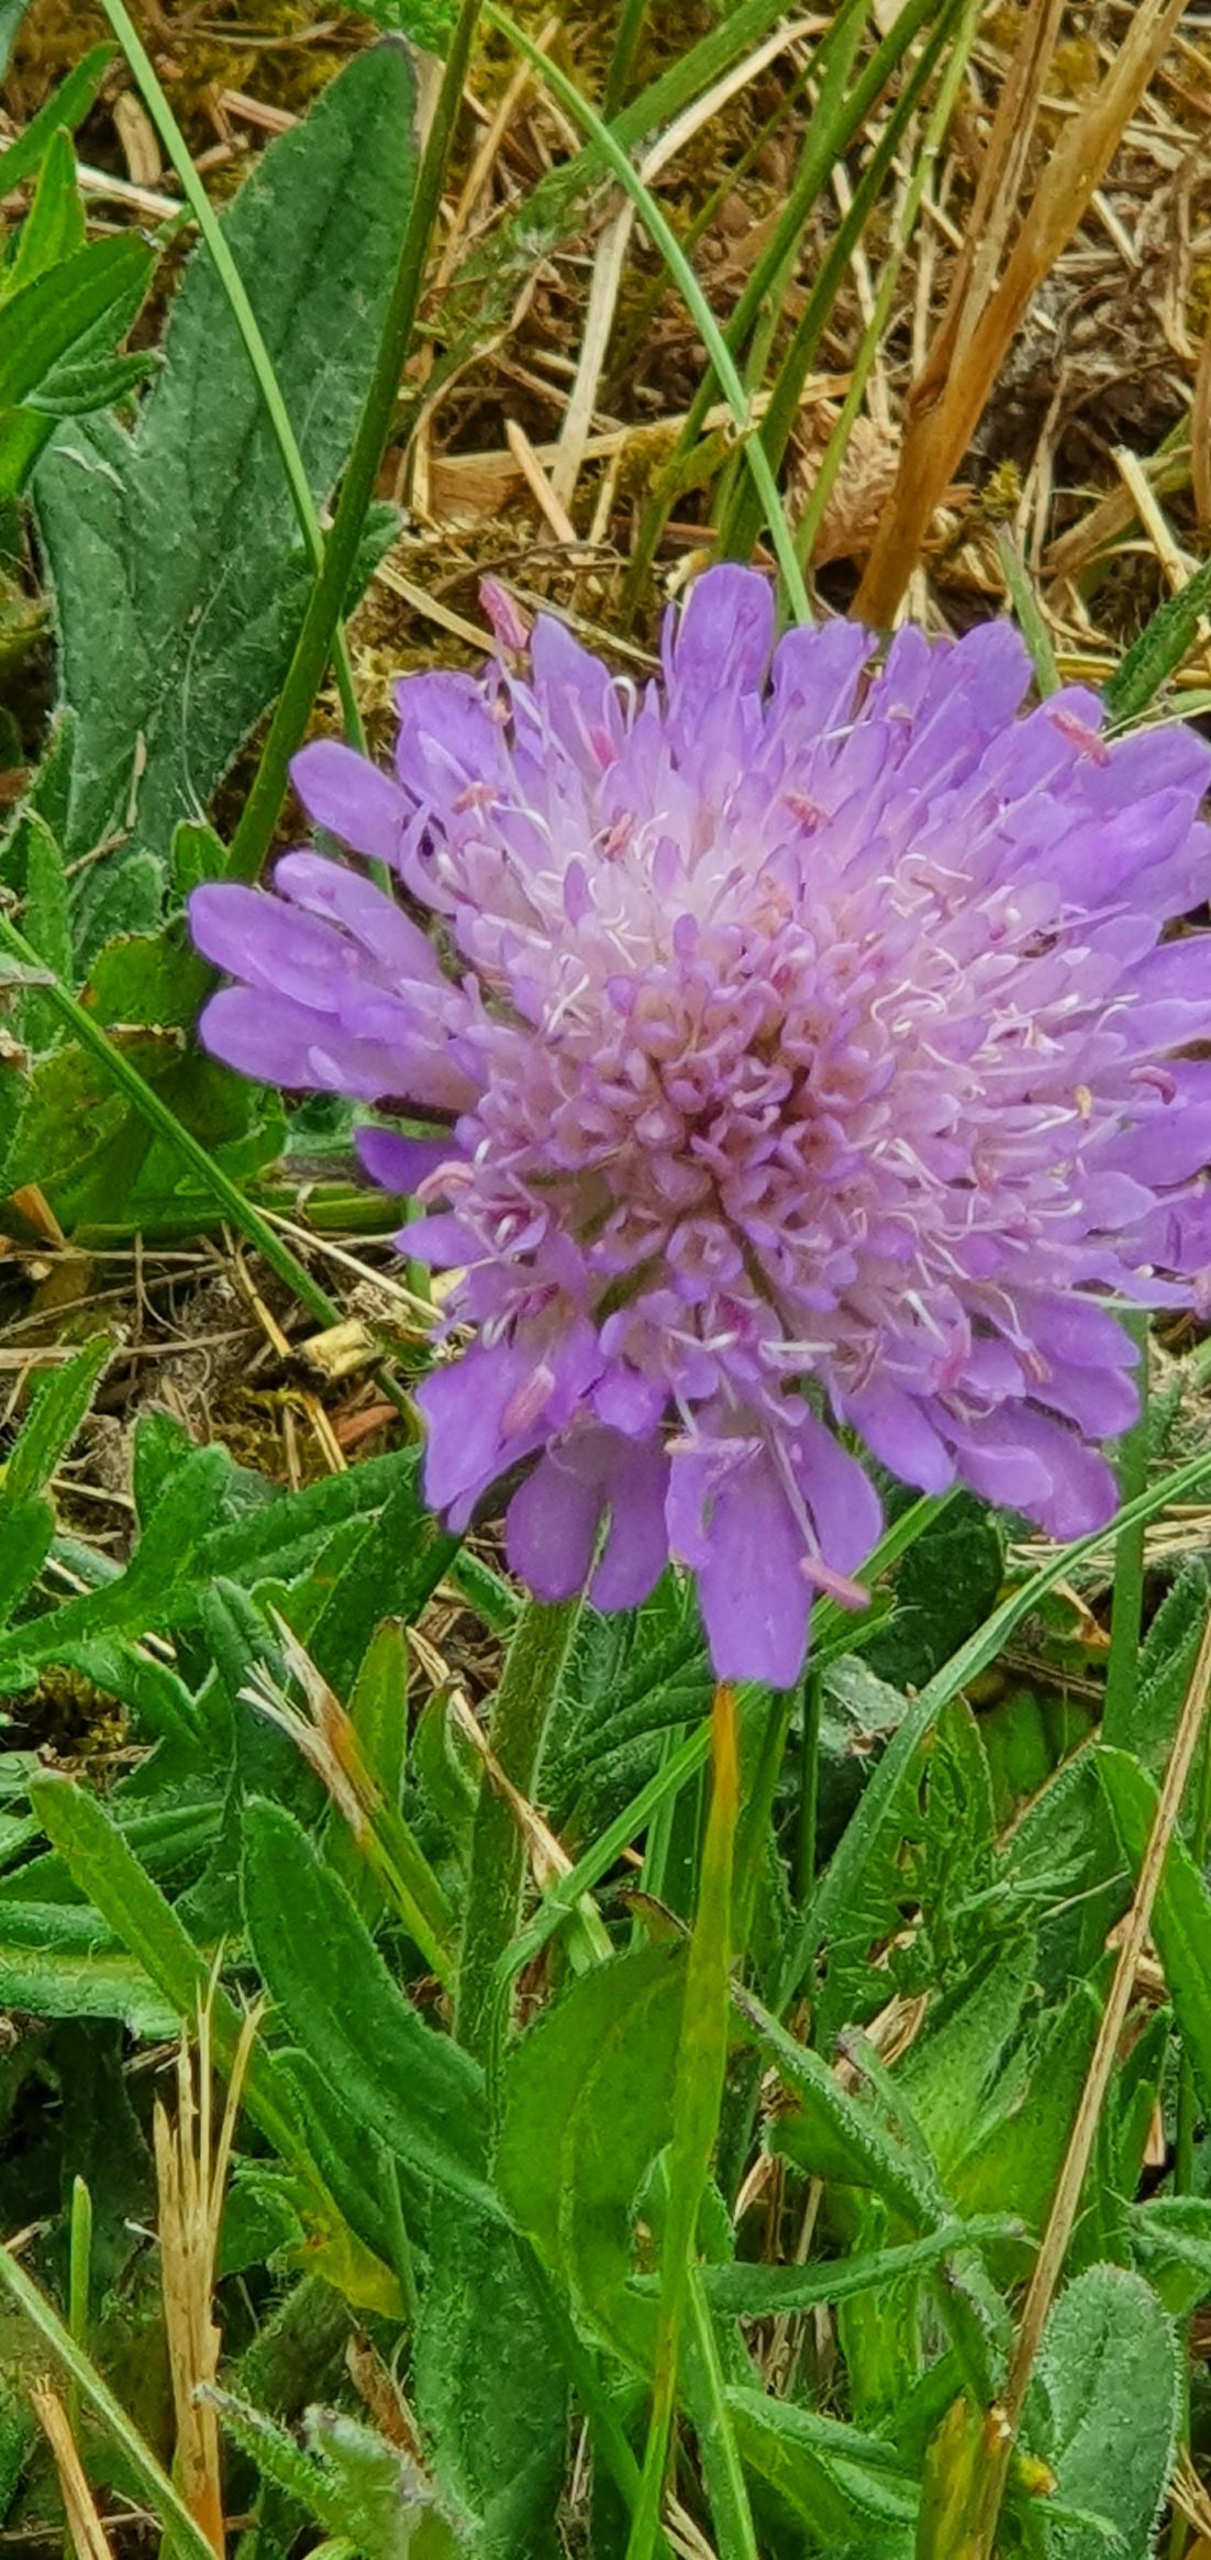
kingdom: Plantae
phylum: Tracheophyta
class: Magnoliopsida
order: Dipsacales
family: Caprifoliaceae
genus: Knautia
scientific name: Knautia arvensis
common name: Blåhat
